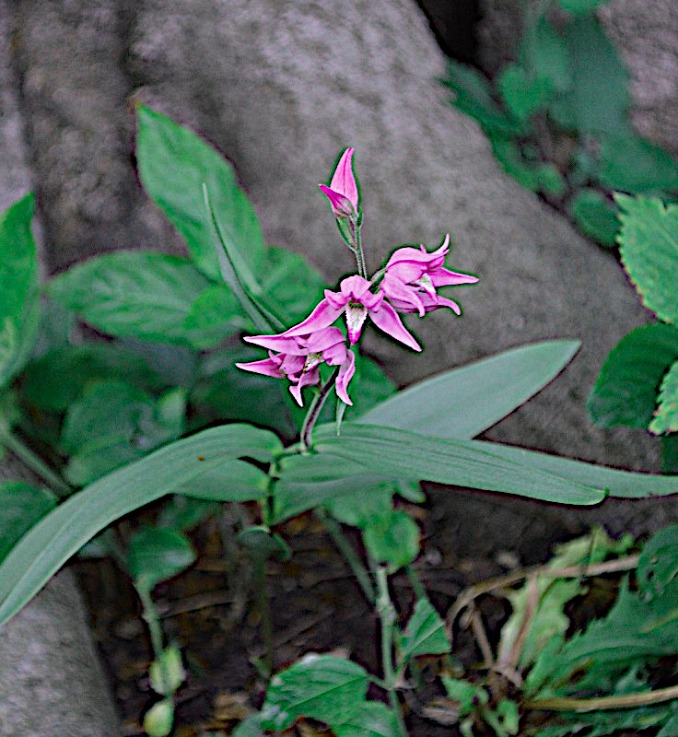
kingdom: Plantae
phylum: Tracheophyta
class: Liliopsida
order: Asparagales
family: Orchidaceae
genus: Cephalanthera
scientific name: Cephalanthera rubra
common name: Rød skovlilje
